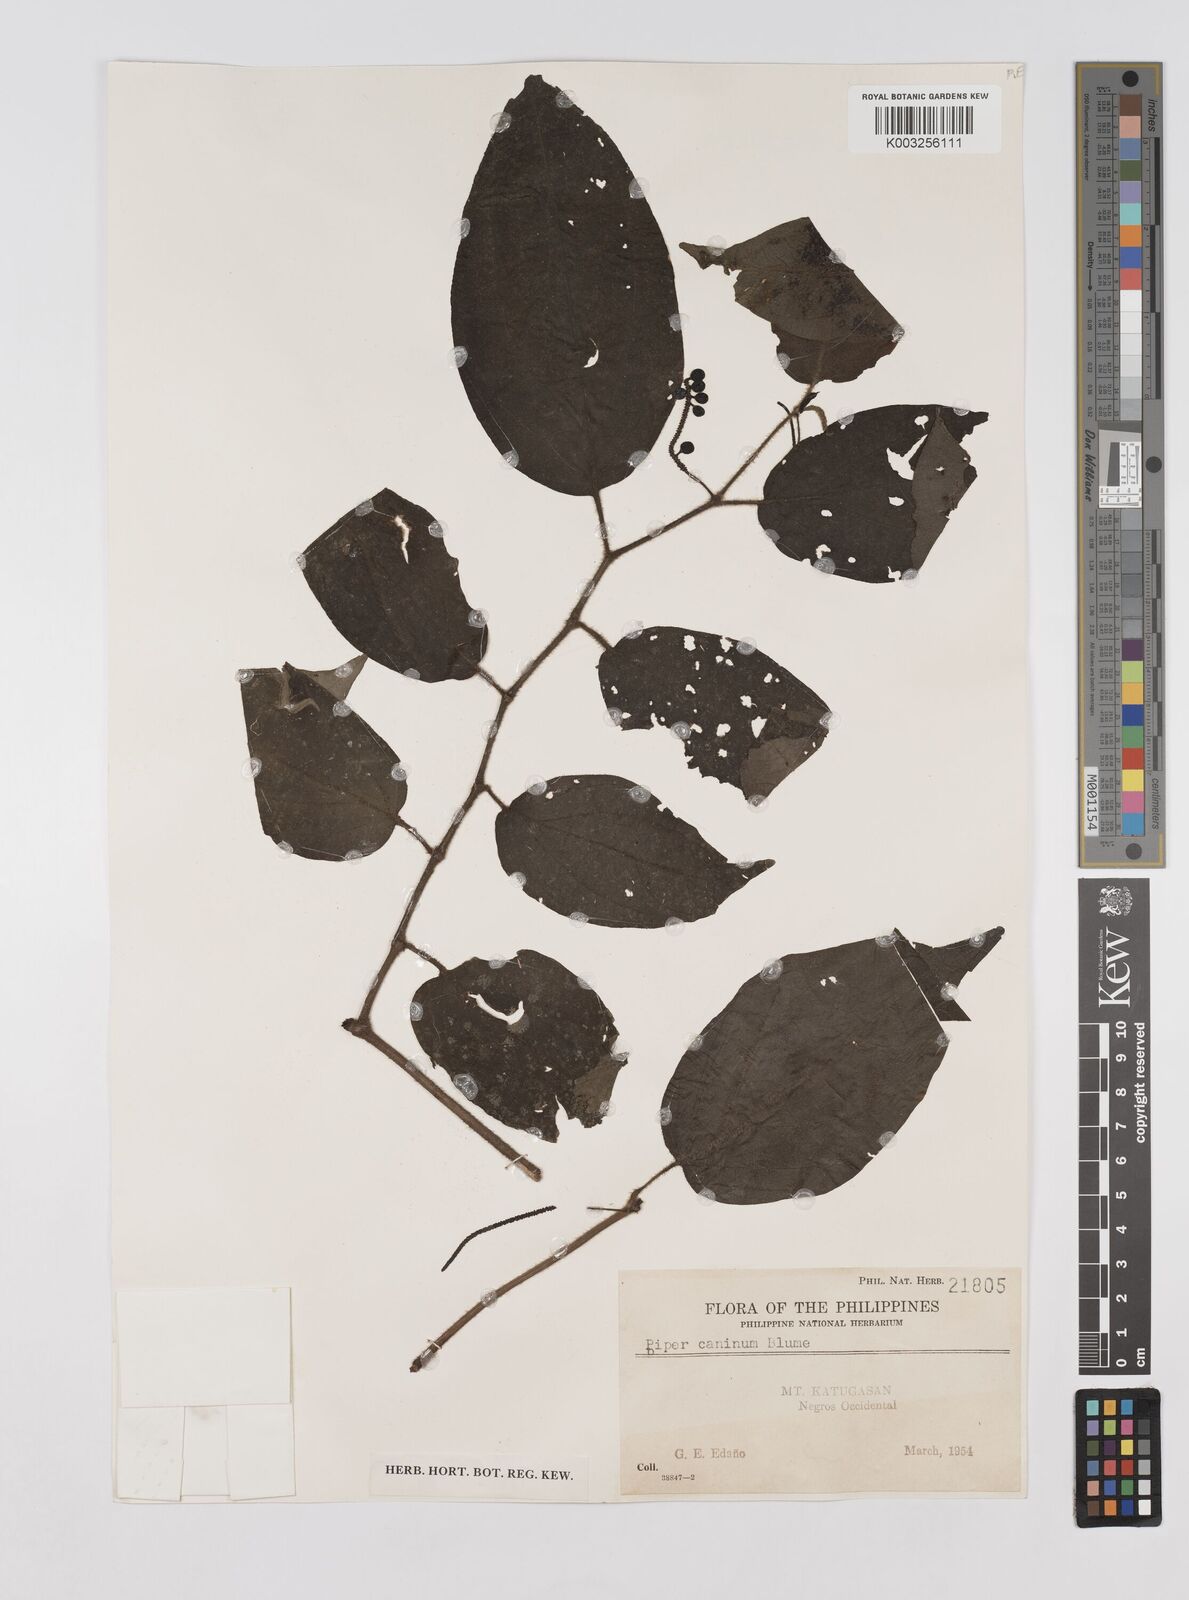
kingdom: Plantae
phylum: Tracheophyta
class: Magnoliopsida
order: Piperales
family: Piperaceae
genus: Piper
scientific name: Piper lanatum
